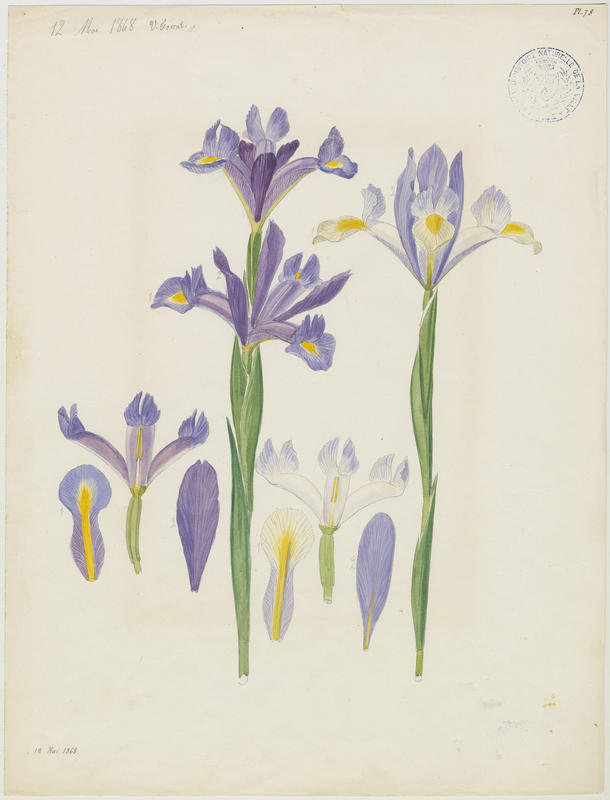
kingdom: Plantae
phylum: Tracheophyta
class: Liliopsida
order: Asparagales
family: Iridaceae
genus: Iris
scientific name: Iris
